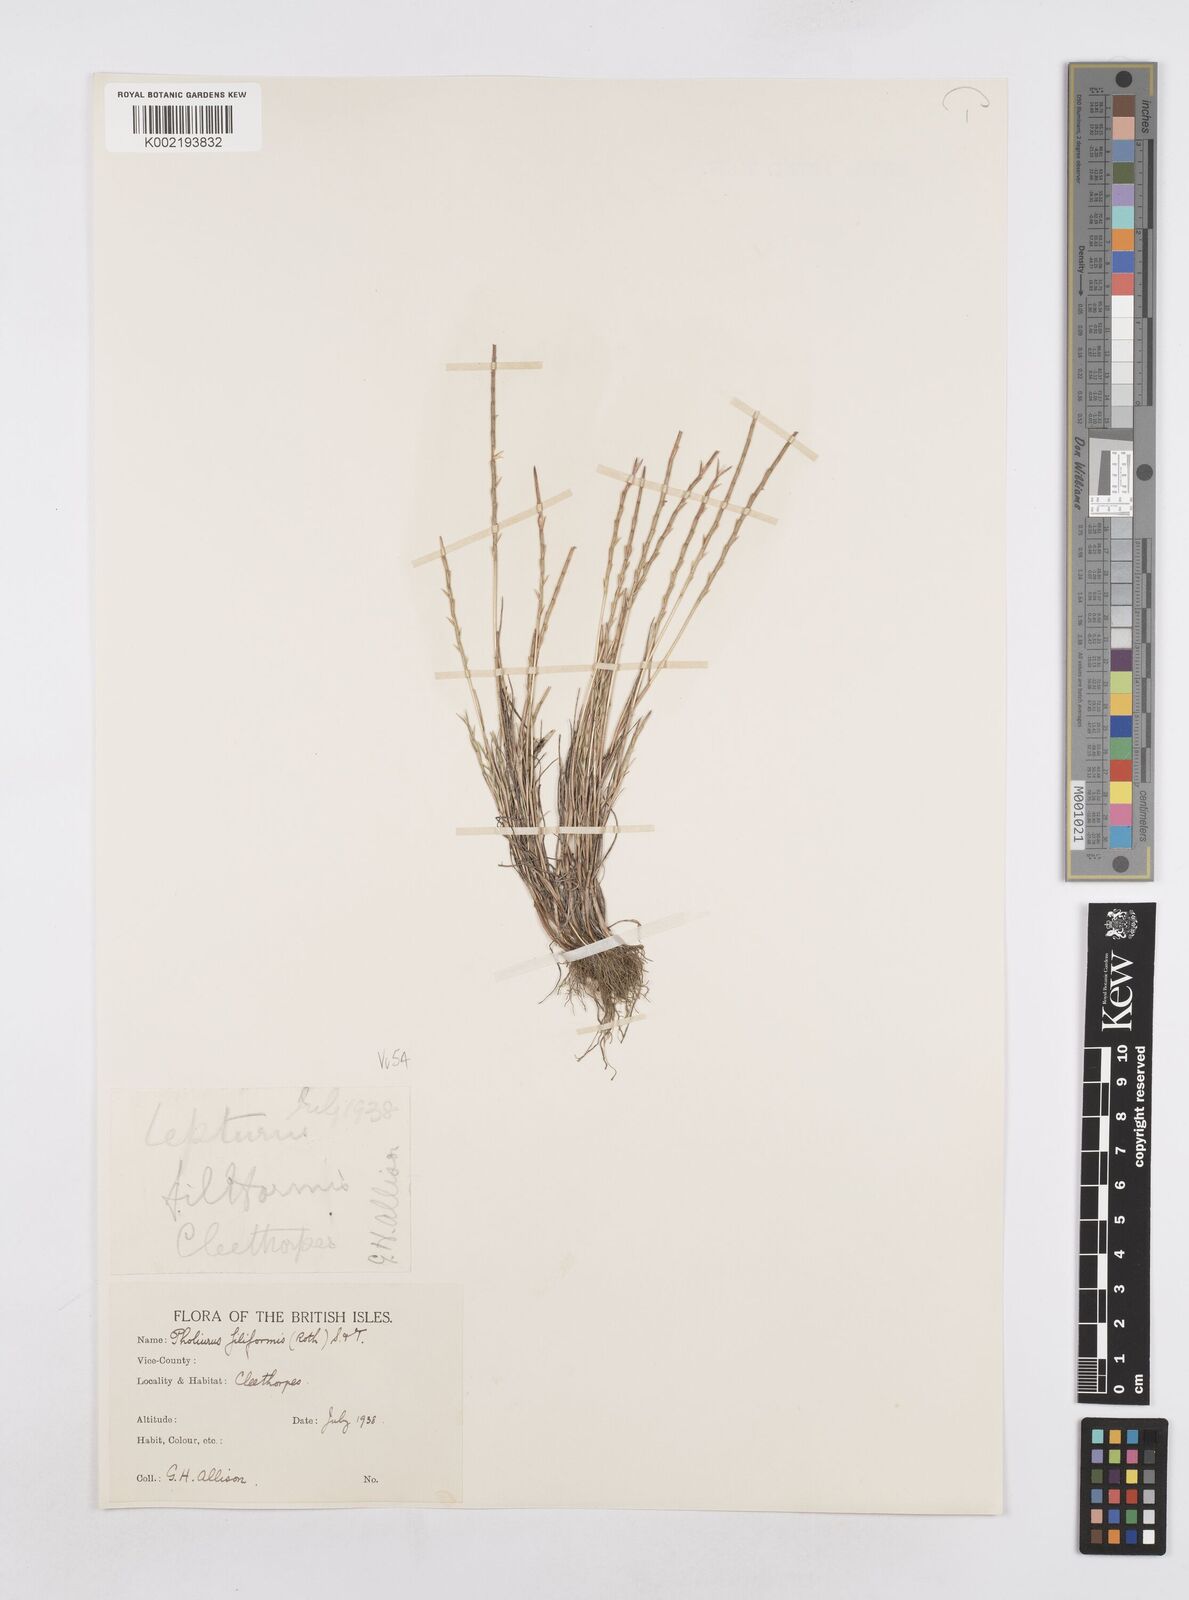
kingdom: Plantae
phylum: Tracheophyta
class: Liliopsida
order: Poales
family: Poaceae
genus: Parapholis
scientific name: Parapholis strigosa
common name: Hard-grass
